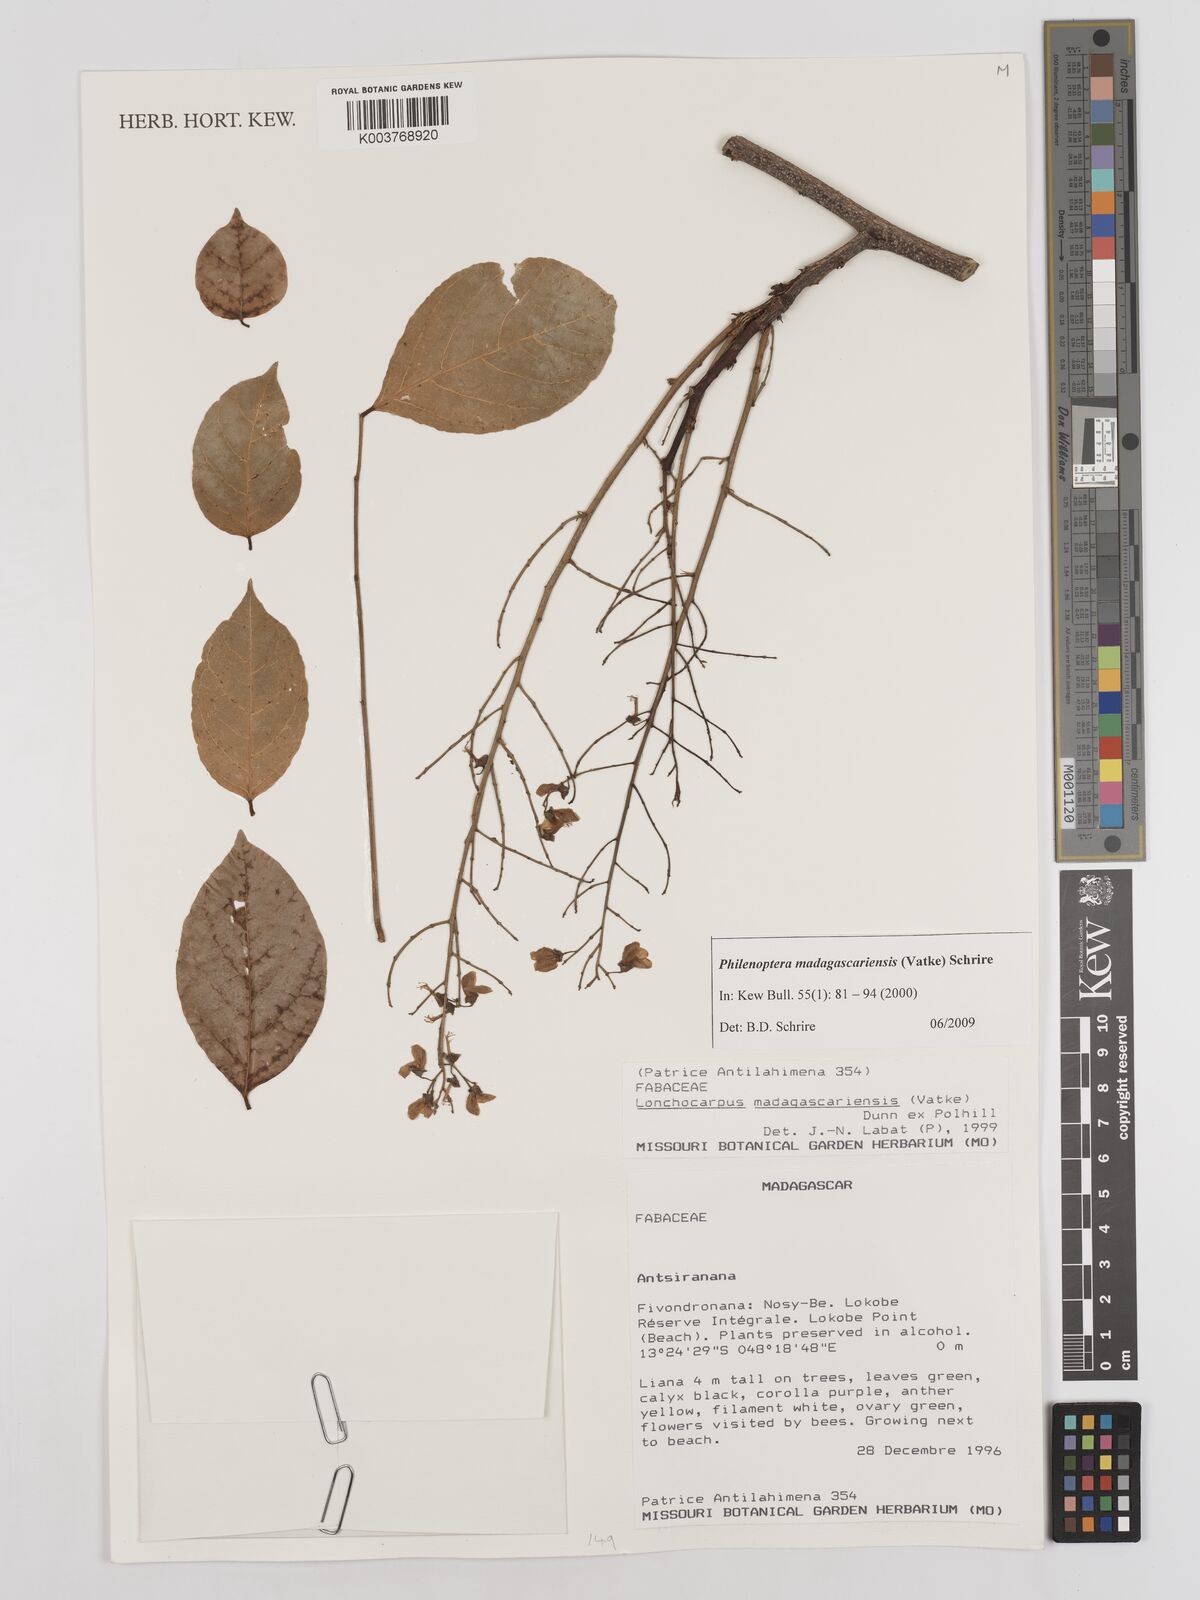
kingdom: Plantae
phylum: Tracheophyta
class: Magnoliopsida
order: Fabales
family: Fabaceae
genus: Lonchocarpus
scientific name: Lonchocarpus madagascariensis
